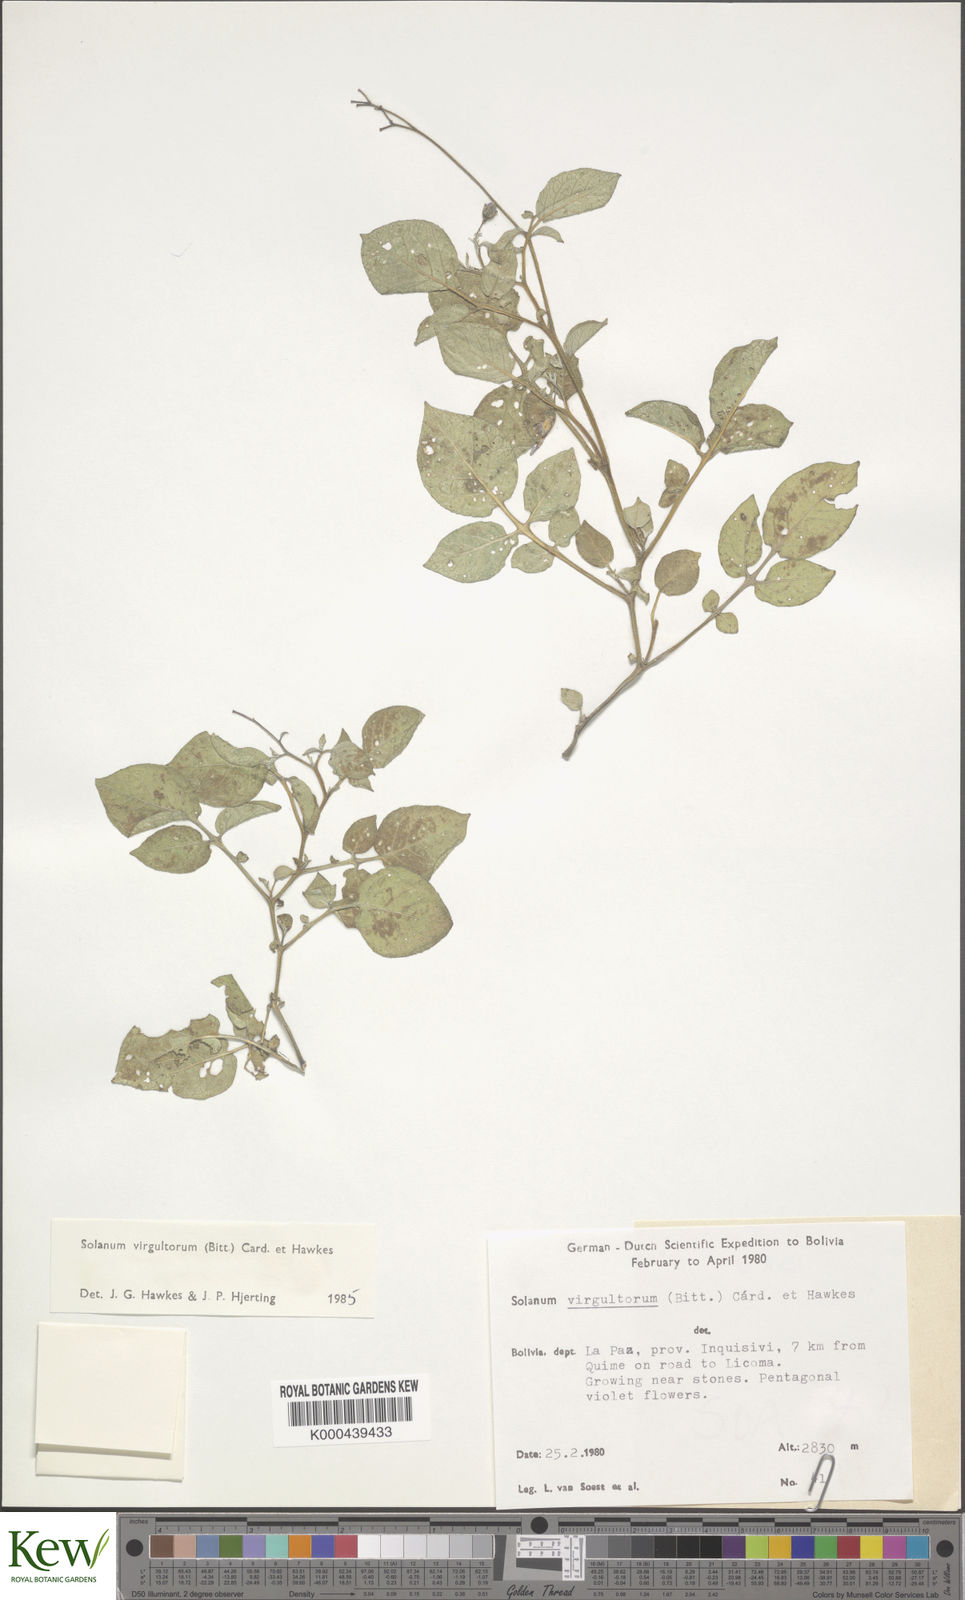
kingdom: Plantae
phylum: Tracheophyta
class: Magnoliopsida
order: Solanales
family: Solanaceae
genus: Solanum
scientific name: Solanum brevicaule
